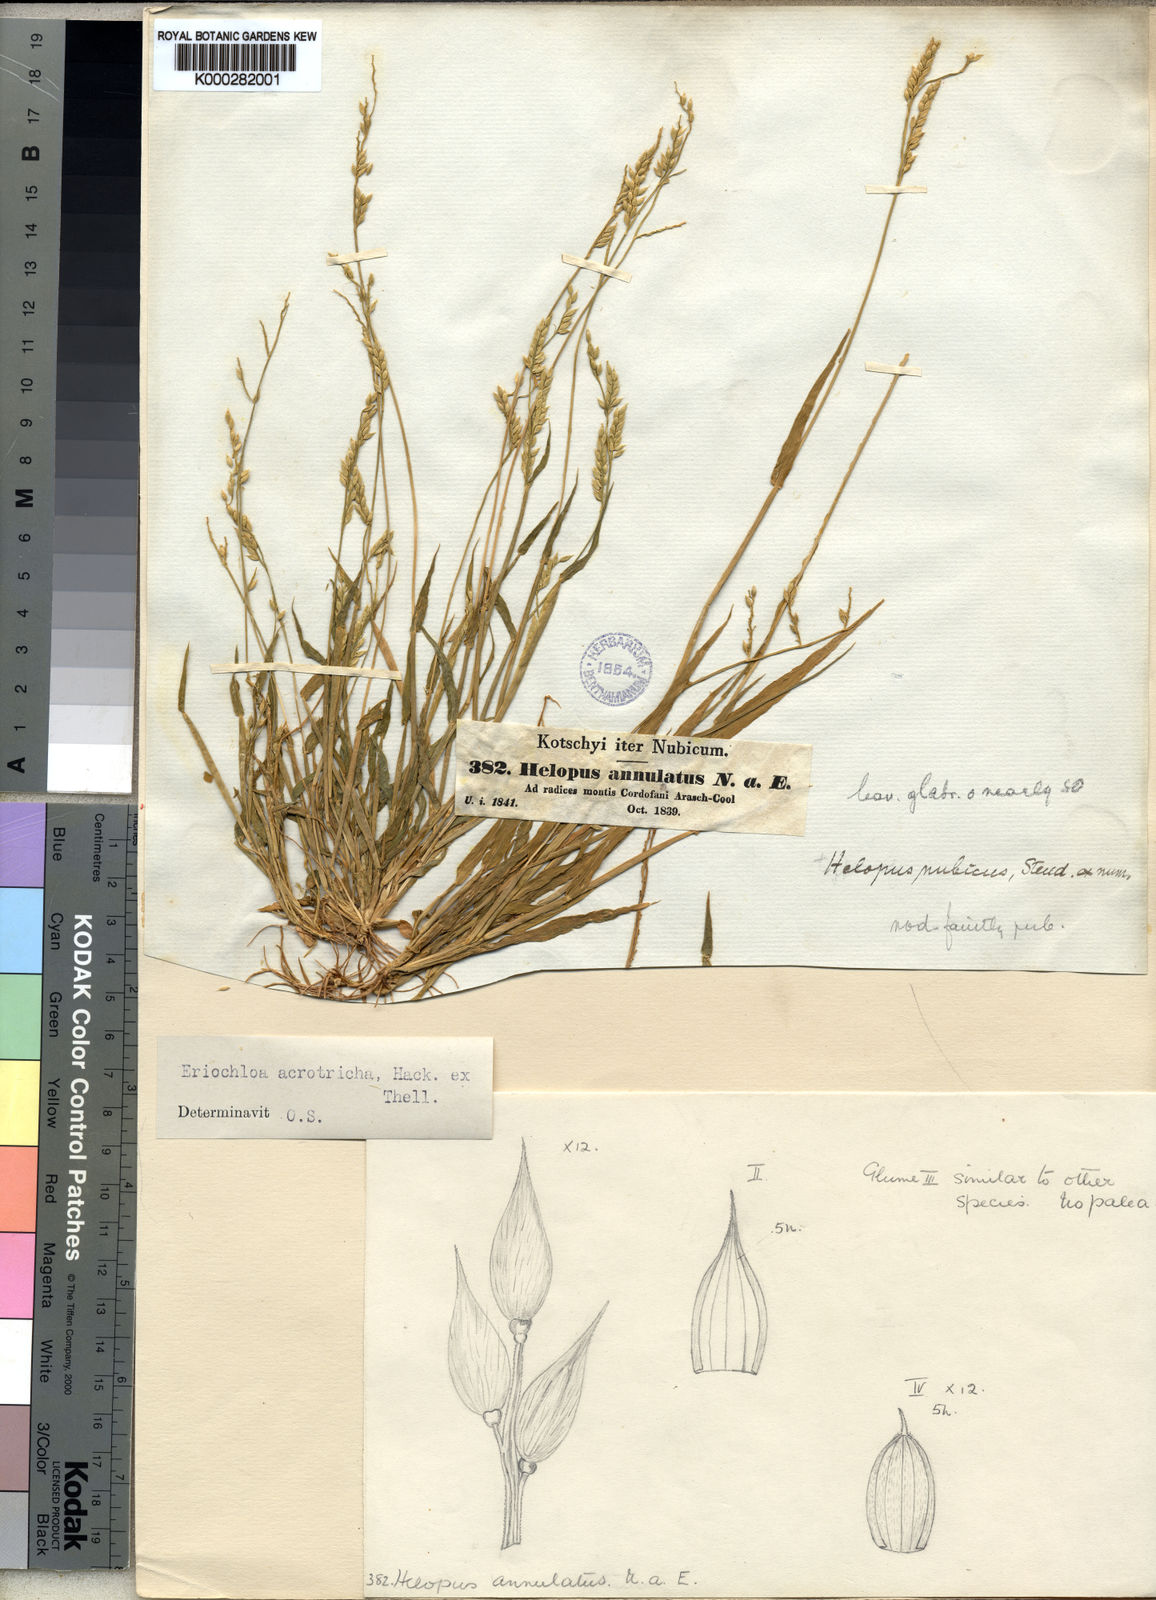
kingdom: Plantae
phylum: Tracheophyta
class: Liliopsida
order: Poales
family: Poaceae
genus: Eriochloa
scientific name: Eriochloa procera
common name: Spring grass
